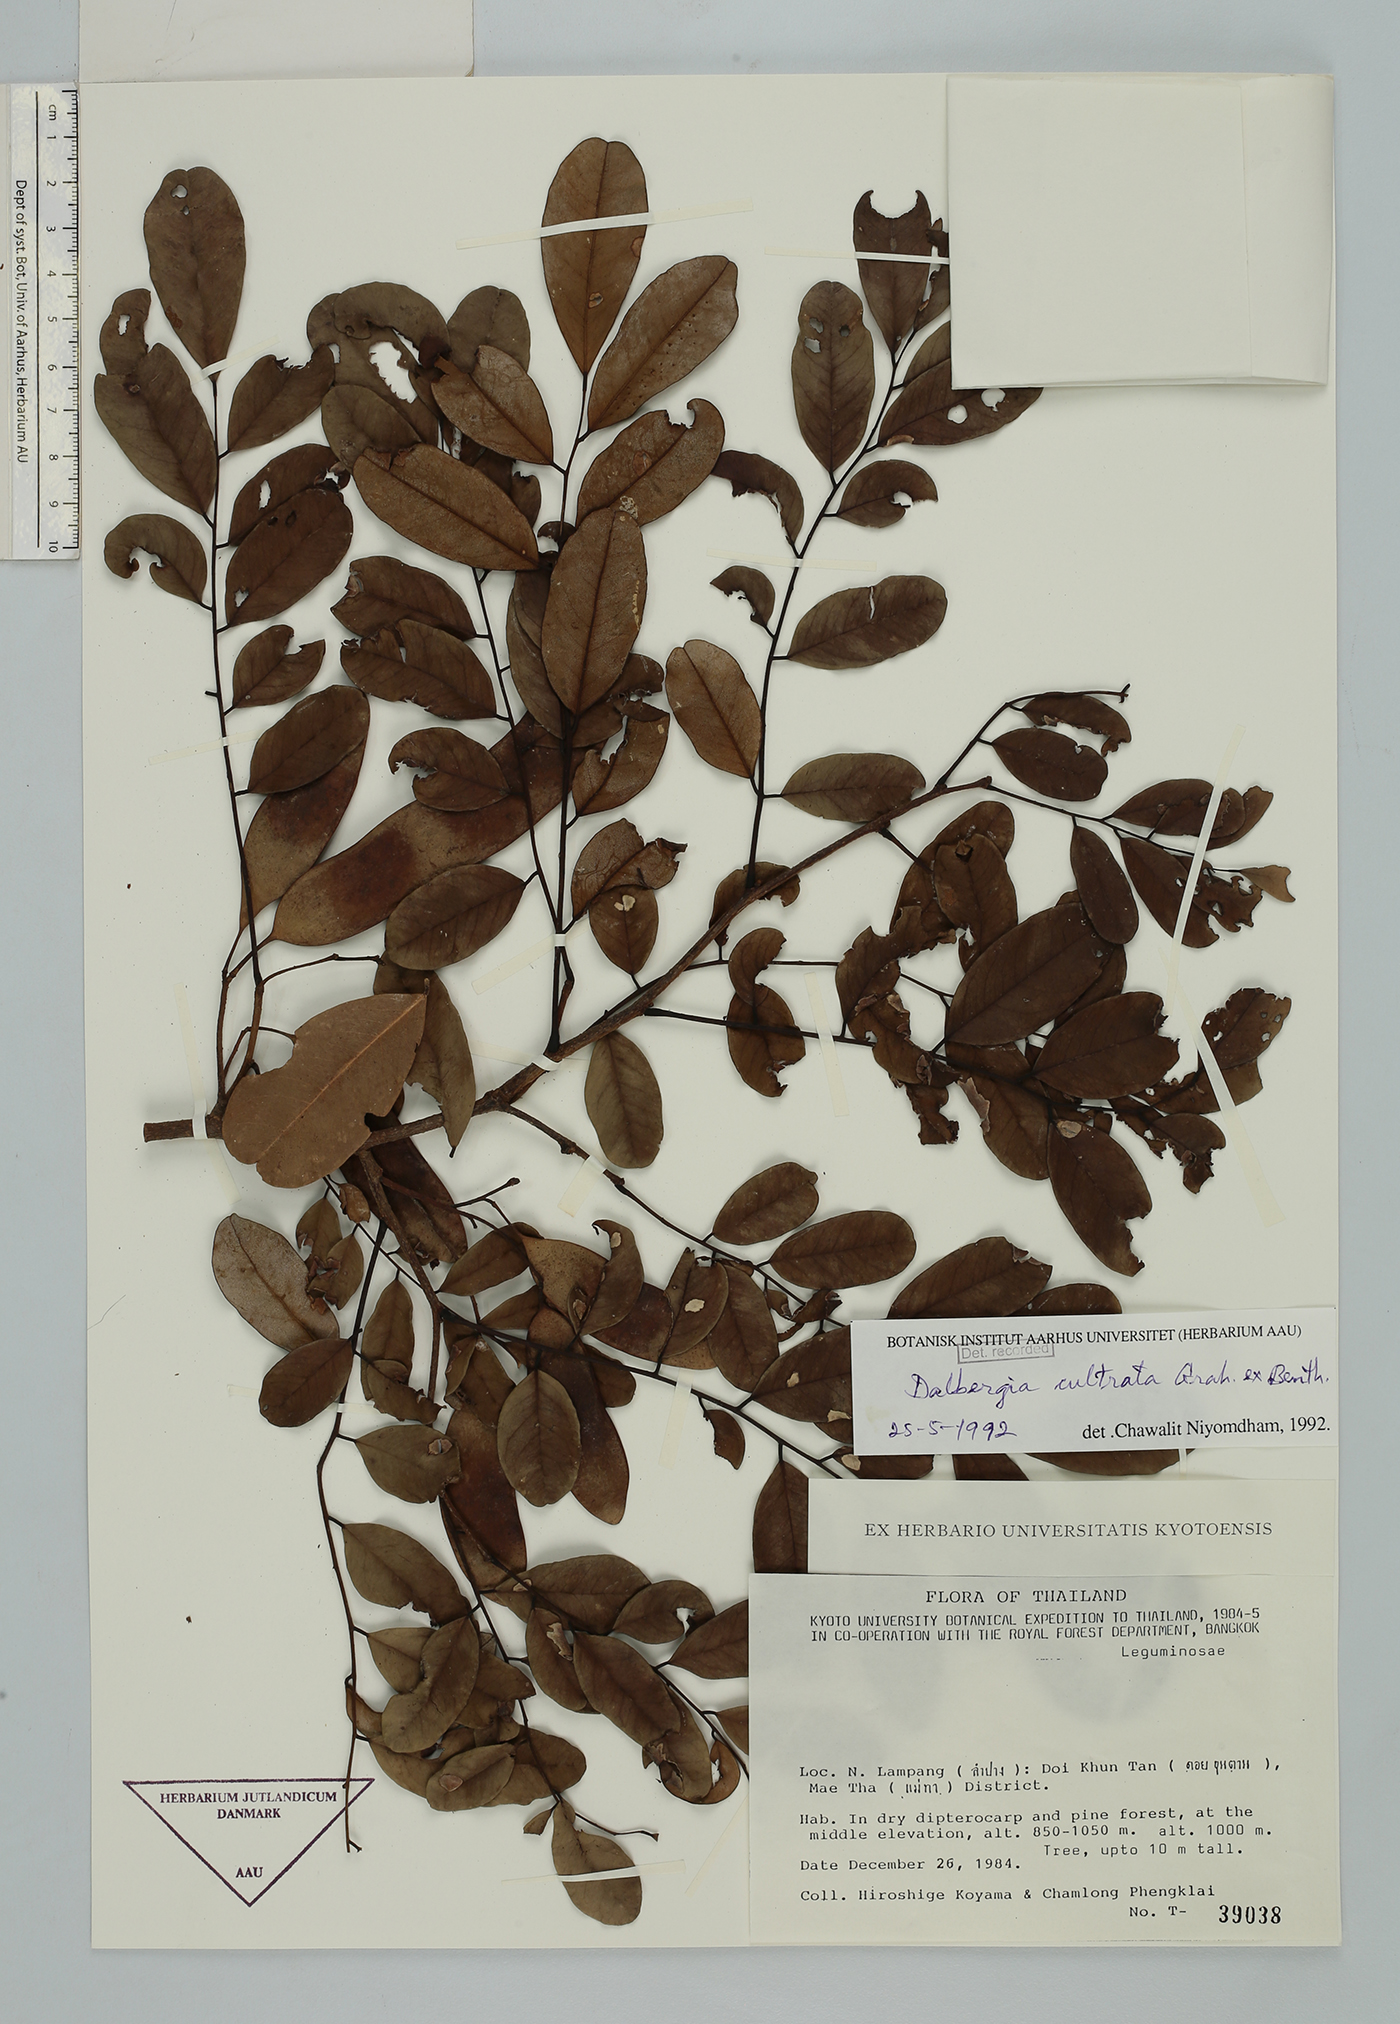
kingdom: Plantae
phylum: Tracheophyta
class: Magnoliopsida
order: Fabales
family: Fabaceae
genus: Dalbergia
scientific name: Dalbergia cultrata
